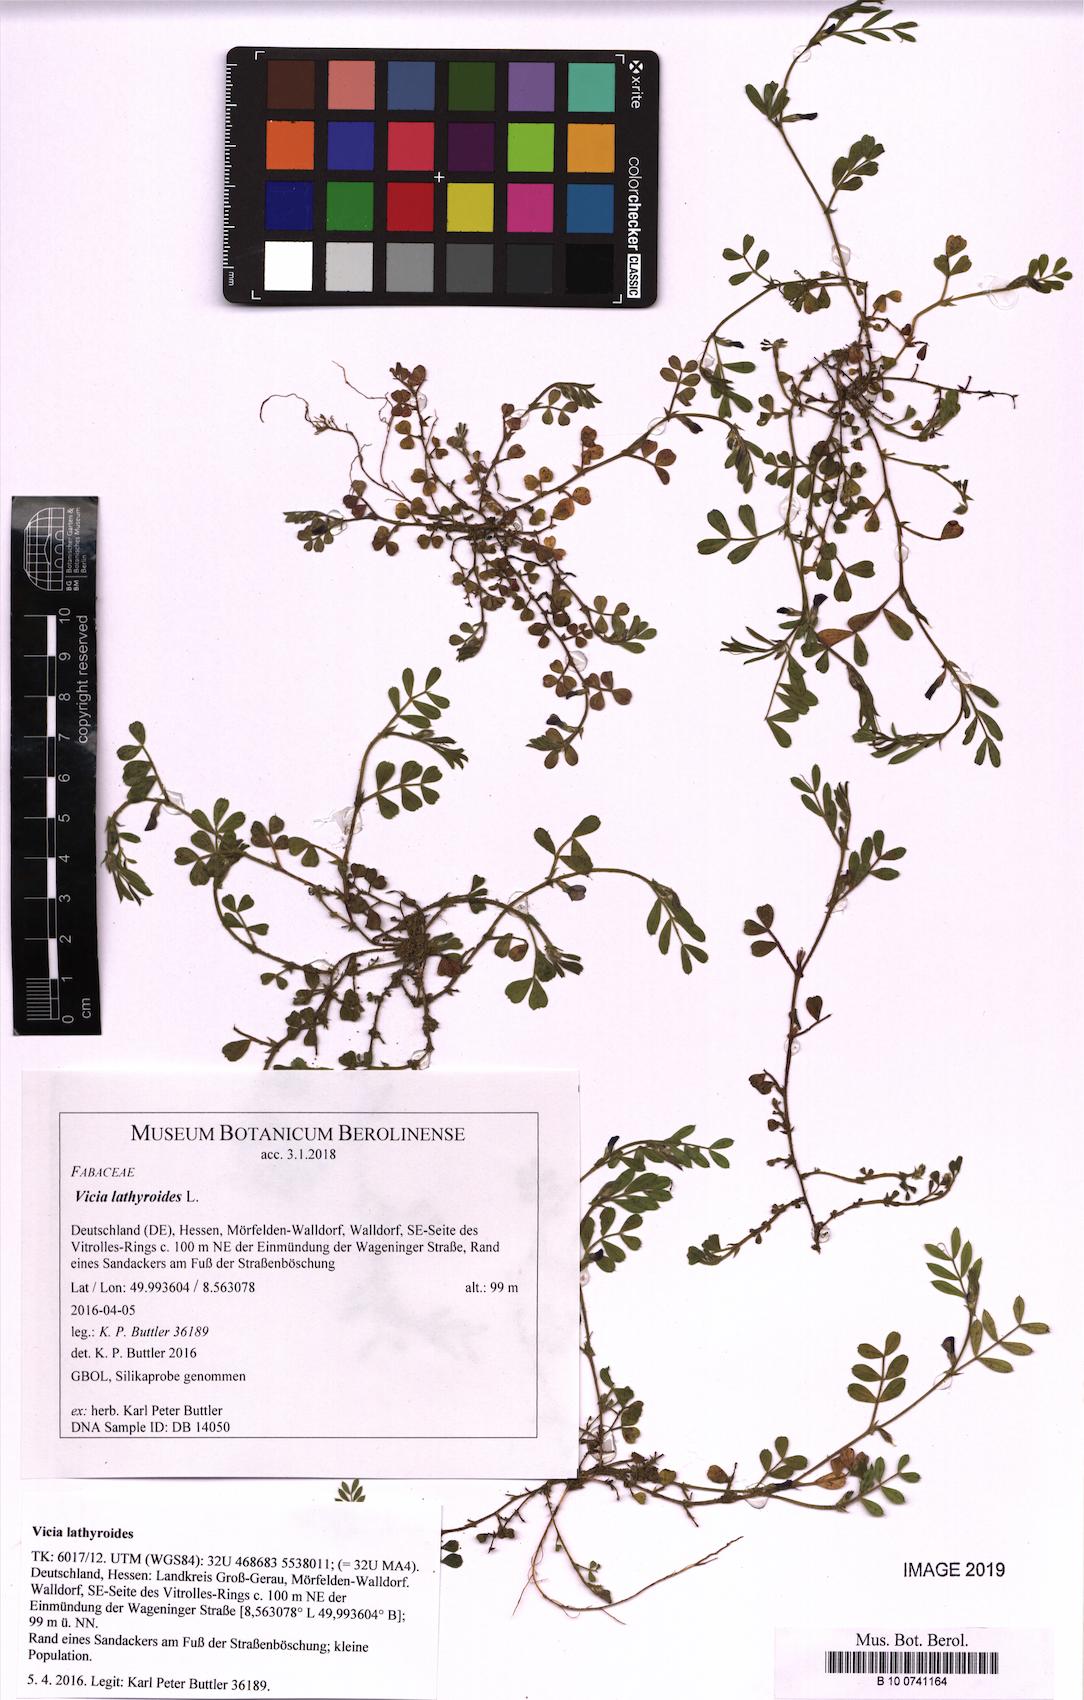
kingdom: Plantae
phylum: Tracheophyta
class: Magnoliopsida
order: Fabales
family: Fabaceae
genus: Vicia
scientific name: Vicia lathyroides
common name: Spring vetch
